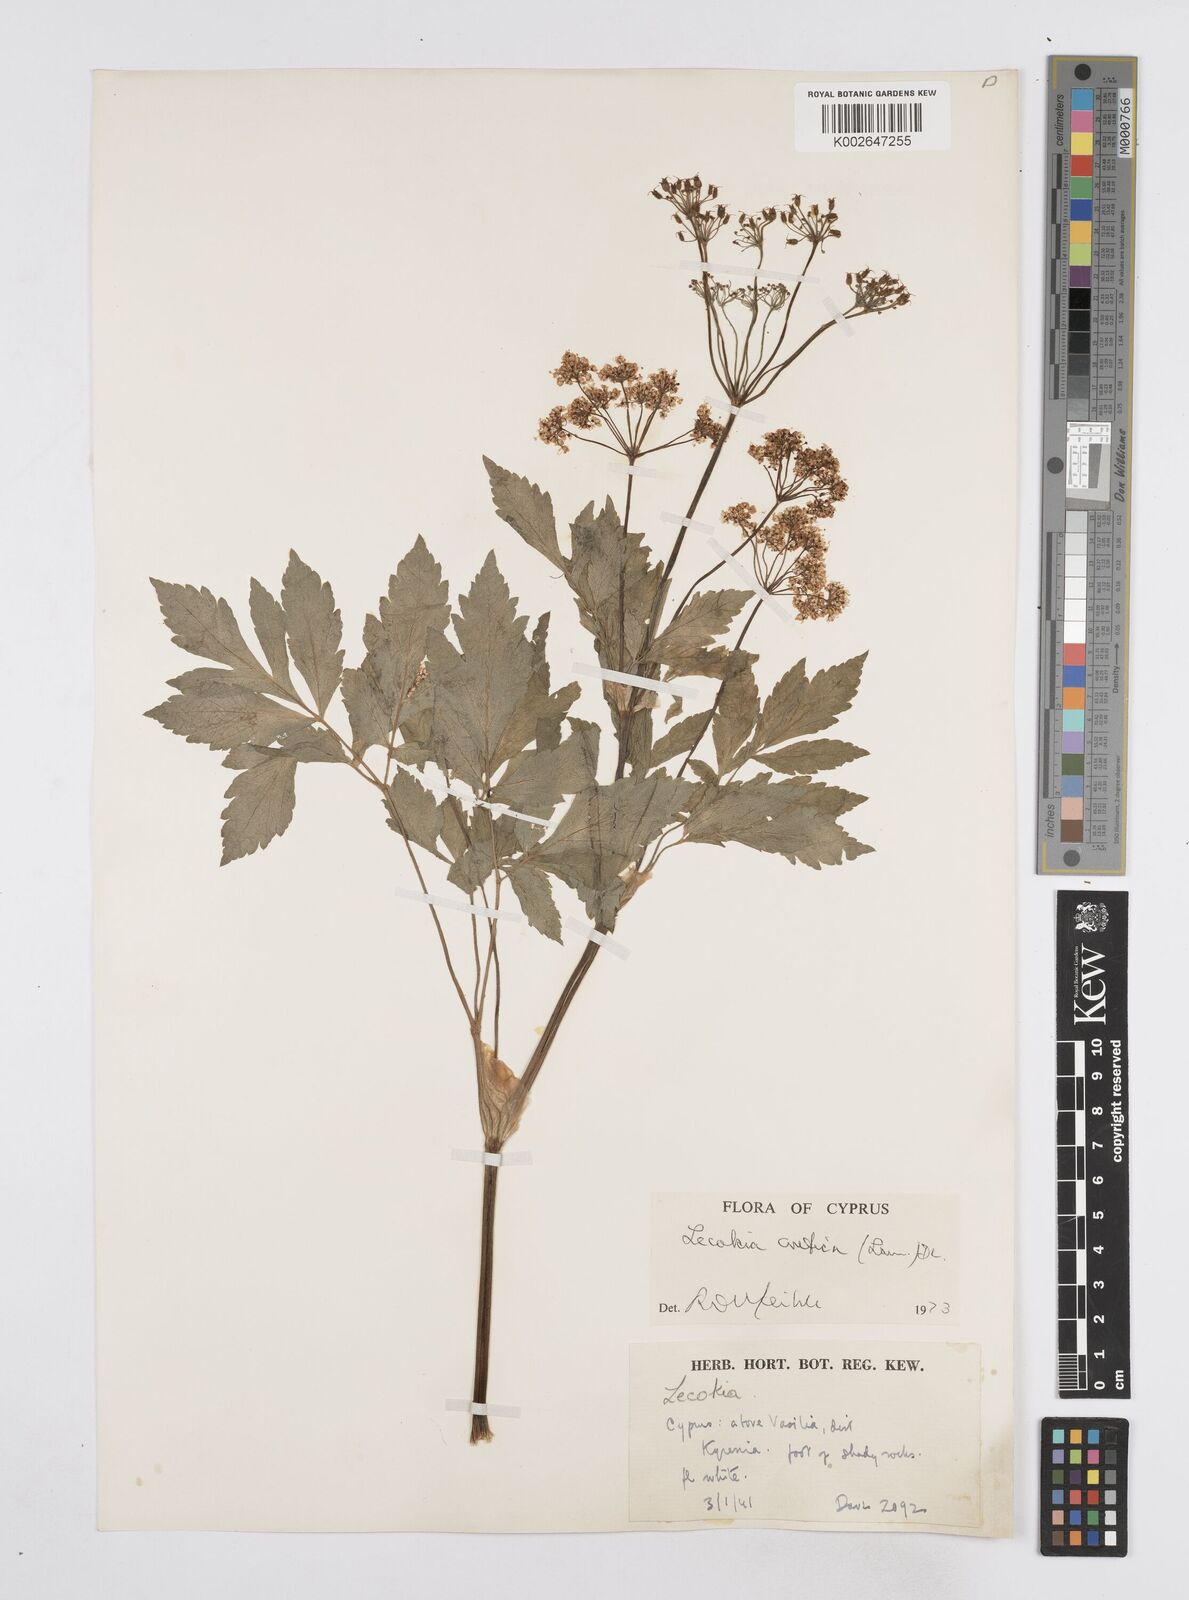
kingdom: Plantae
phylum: Tracheophyta
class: Magnoliopsida
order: Apiales
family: Apiaceae
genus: Lecokia
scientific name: Lecokia cretica
